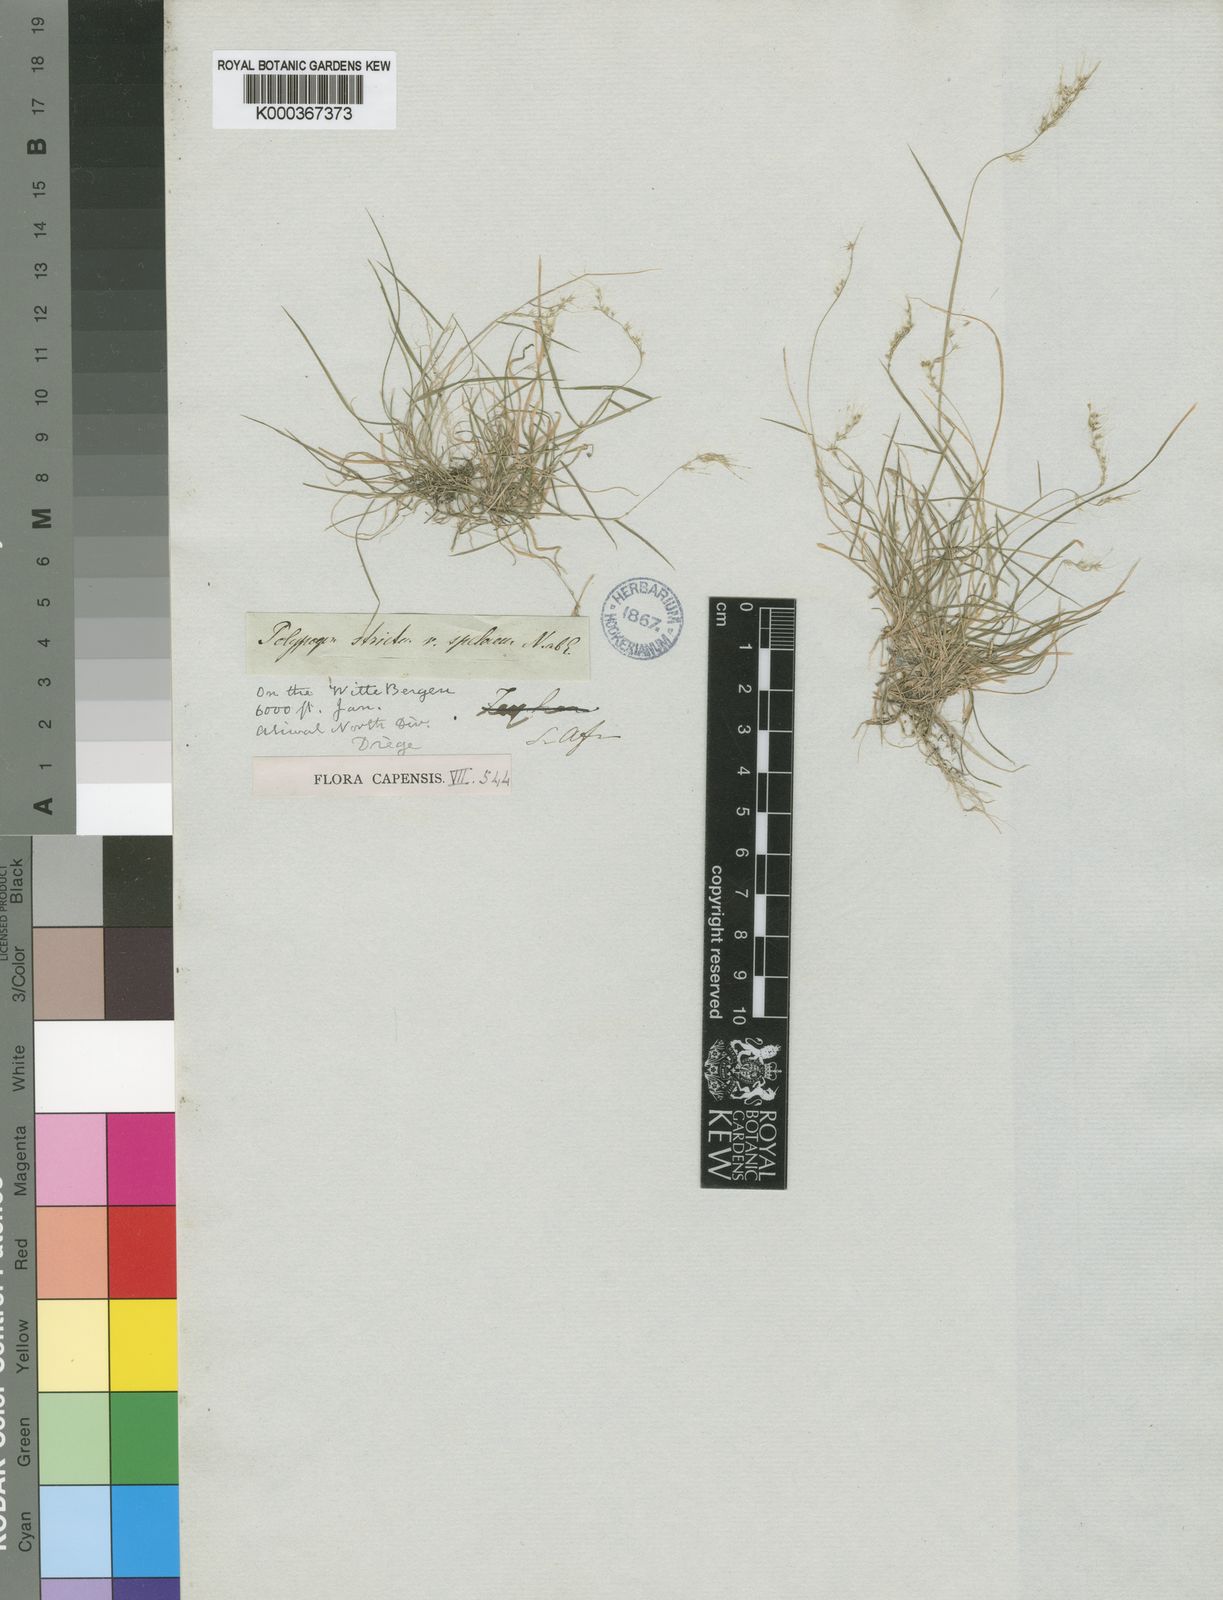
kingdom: Plantae
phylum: Tracheophyta
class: Liliopsida
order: Poales
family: Poaceae
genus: Polypogon
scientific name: Polypogon tenuis
